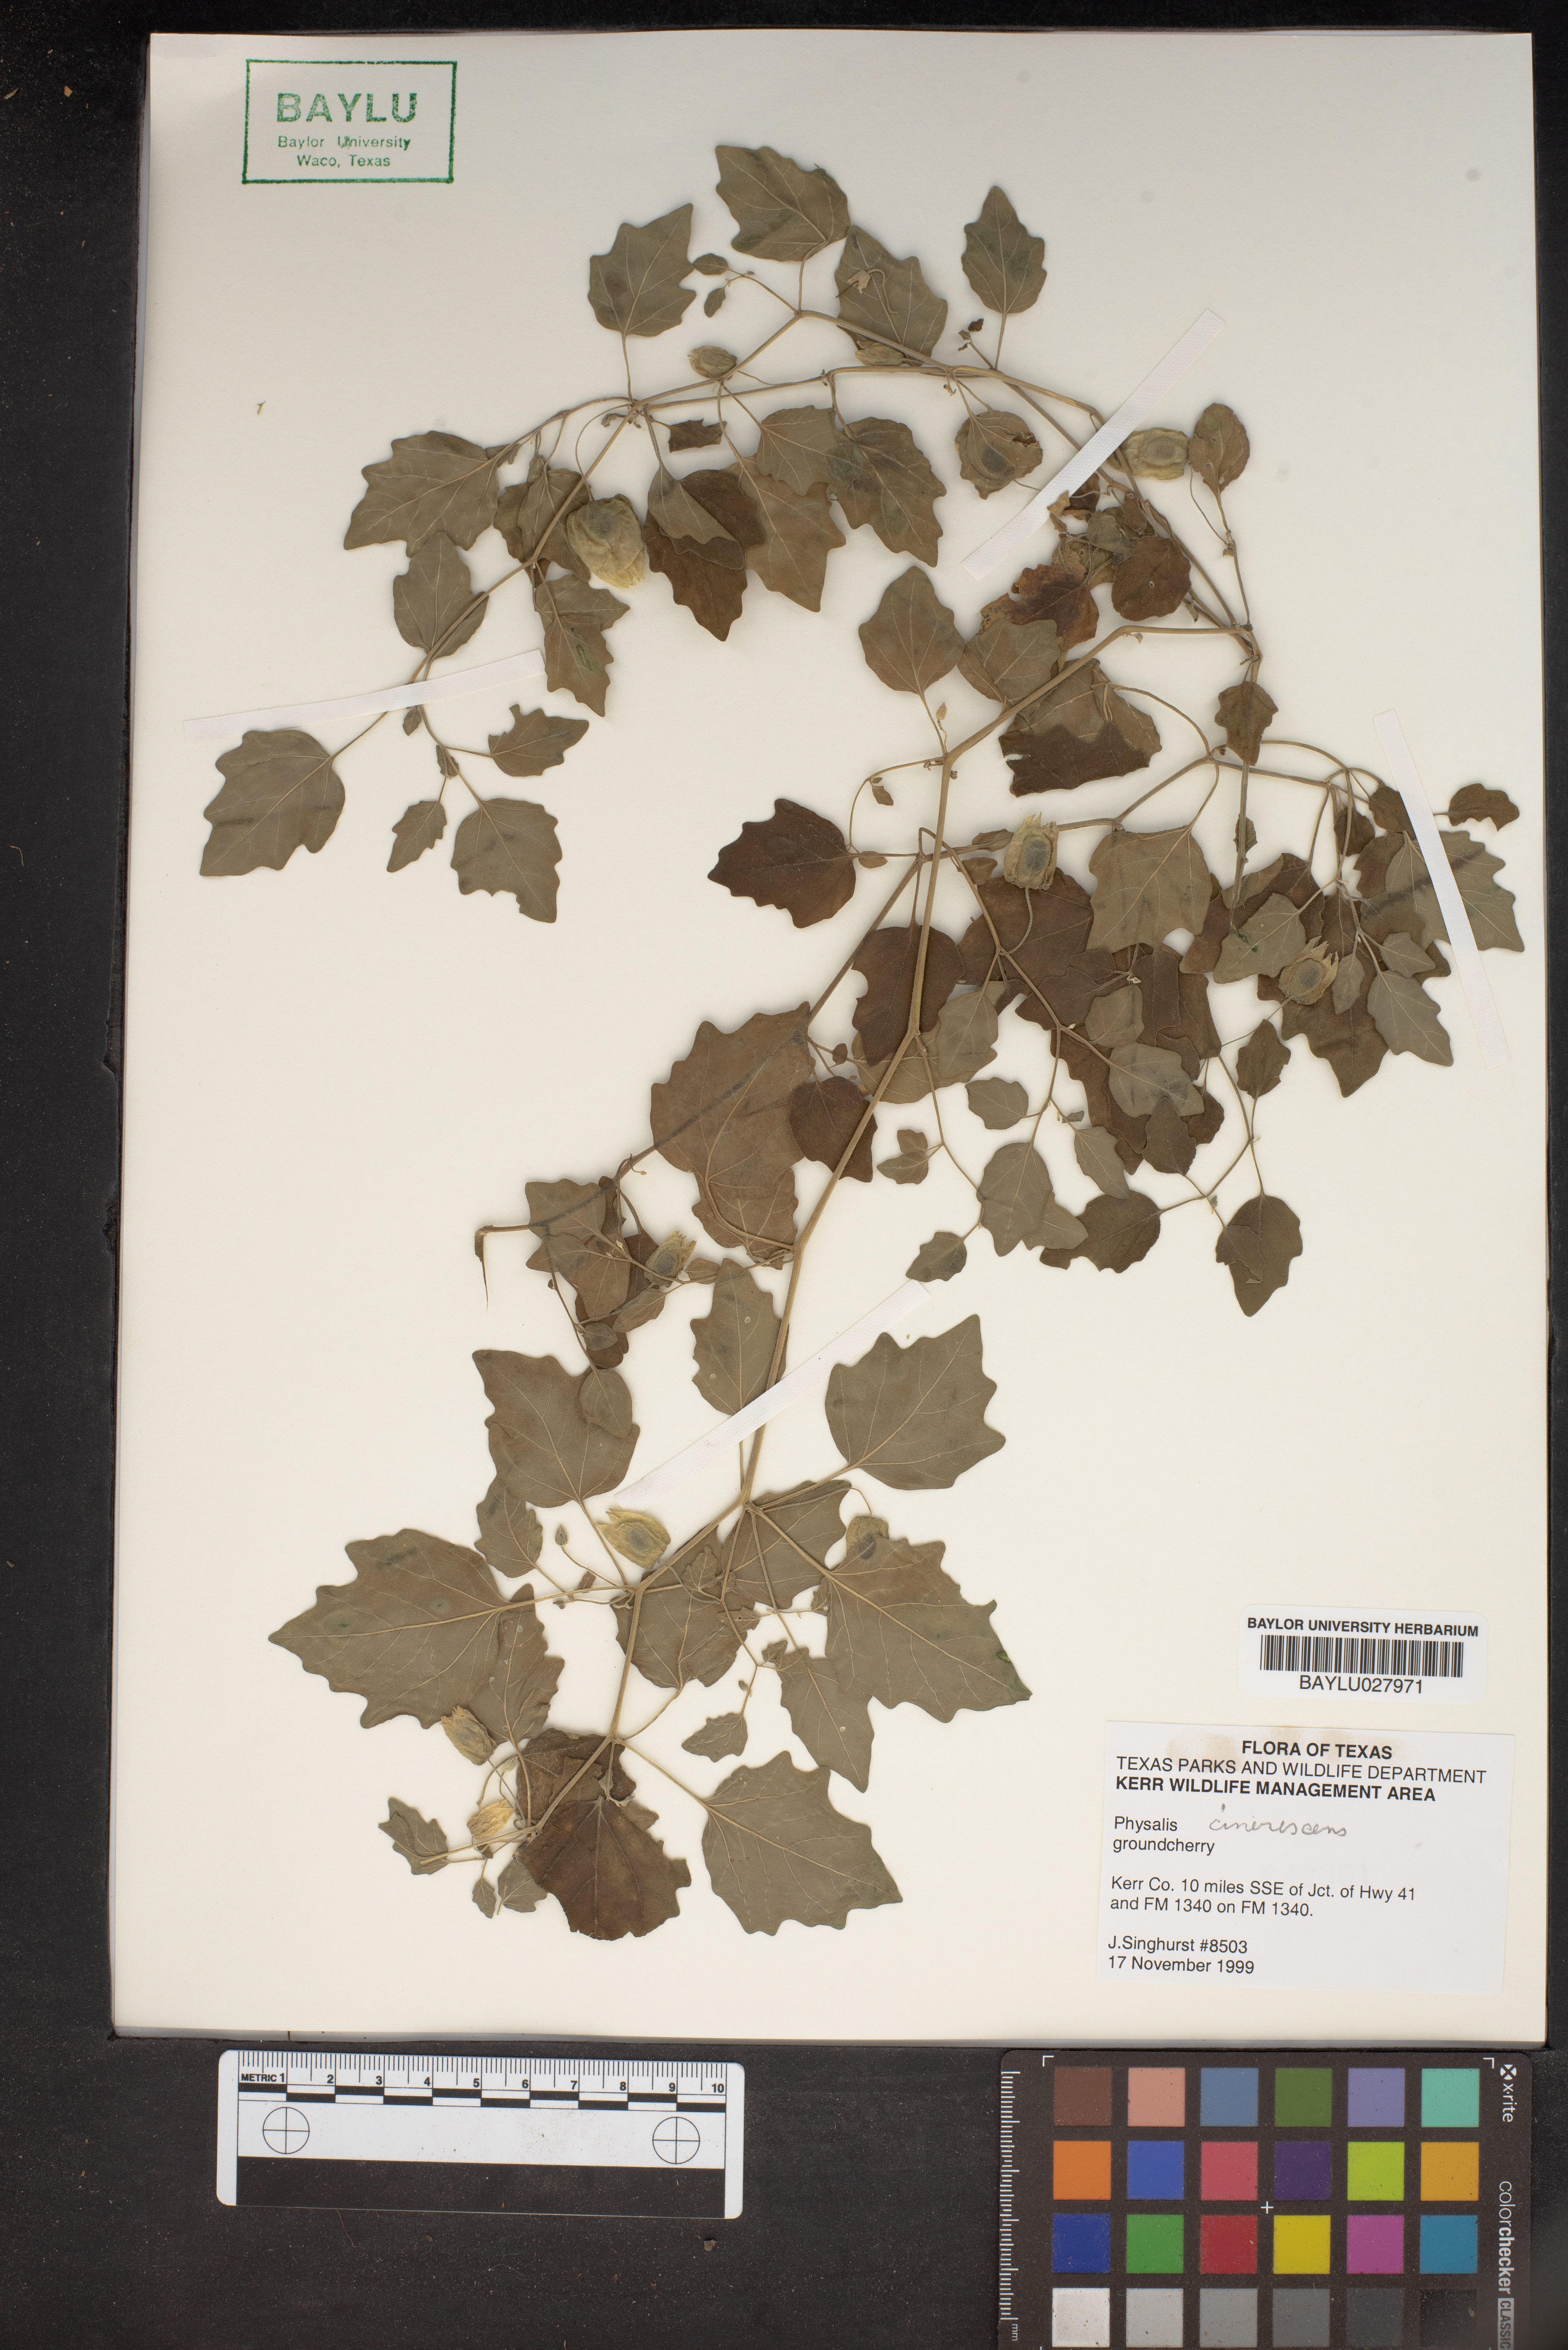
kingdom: Plantae
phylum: Tracheophyta
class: Magnoliopsida
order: Solanales
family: Solanaceae
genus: Physalis
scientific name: Physalis cinerascens
